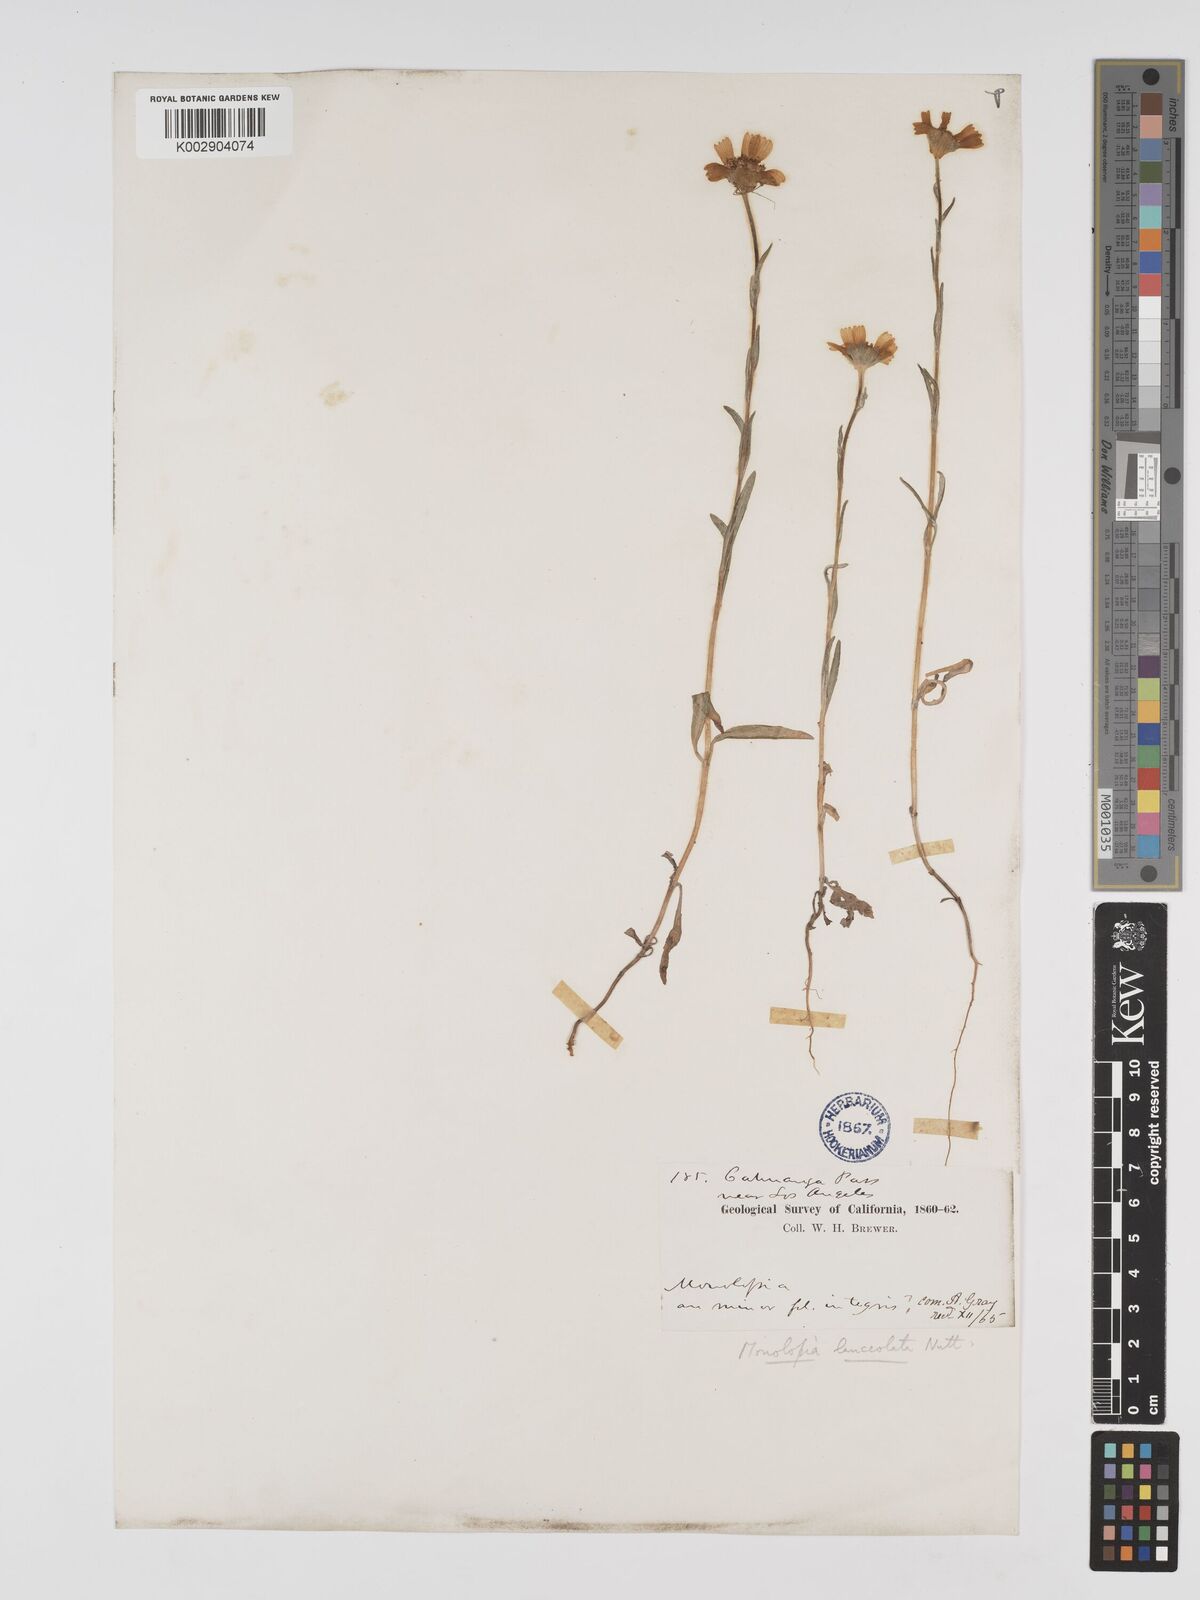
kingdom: Plantae
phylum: Tracheophyta
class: Magnoliopsida
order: Asterales
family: Asteraceae
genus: Monolopia
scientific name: Monolopia lanceolata
